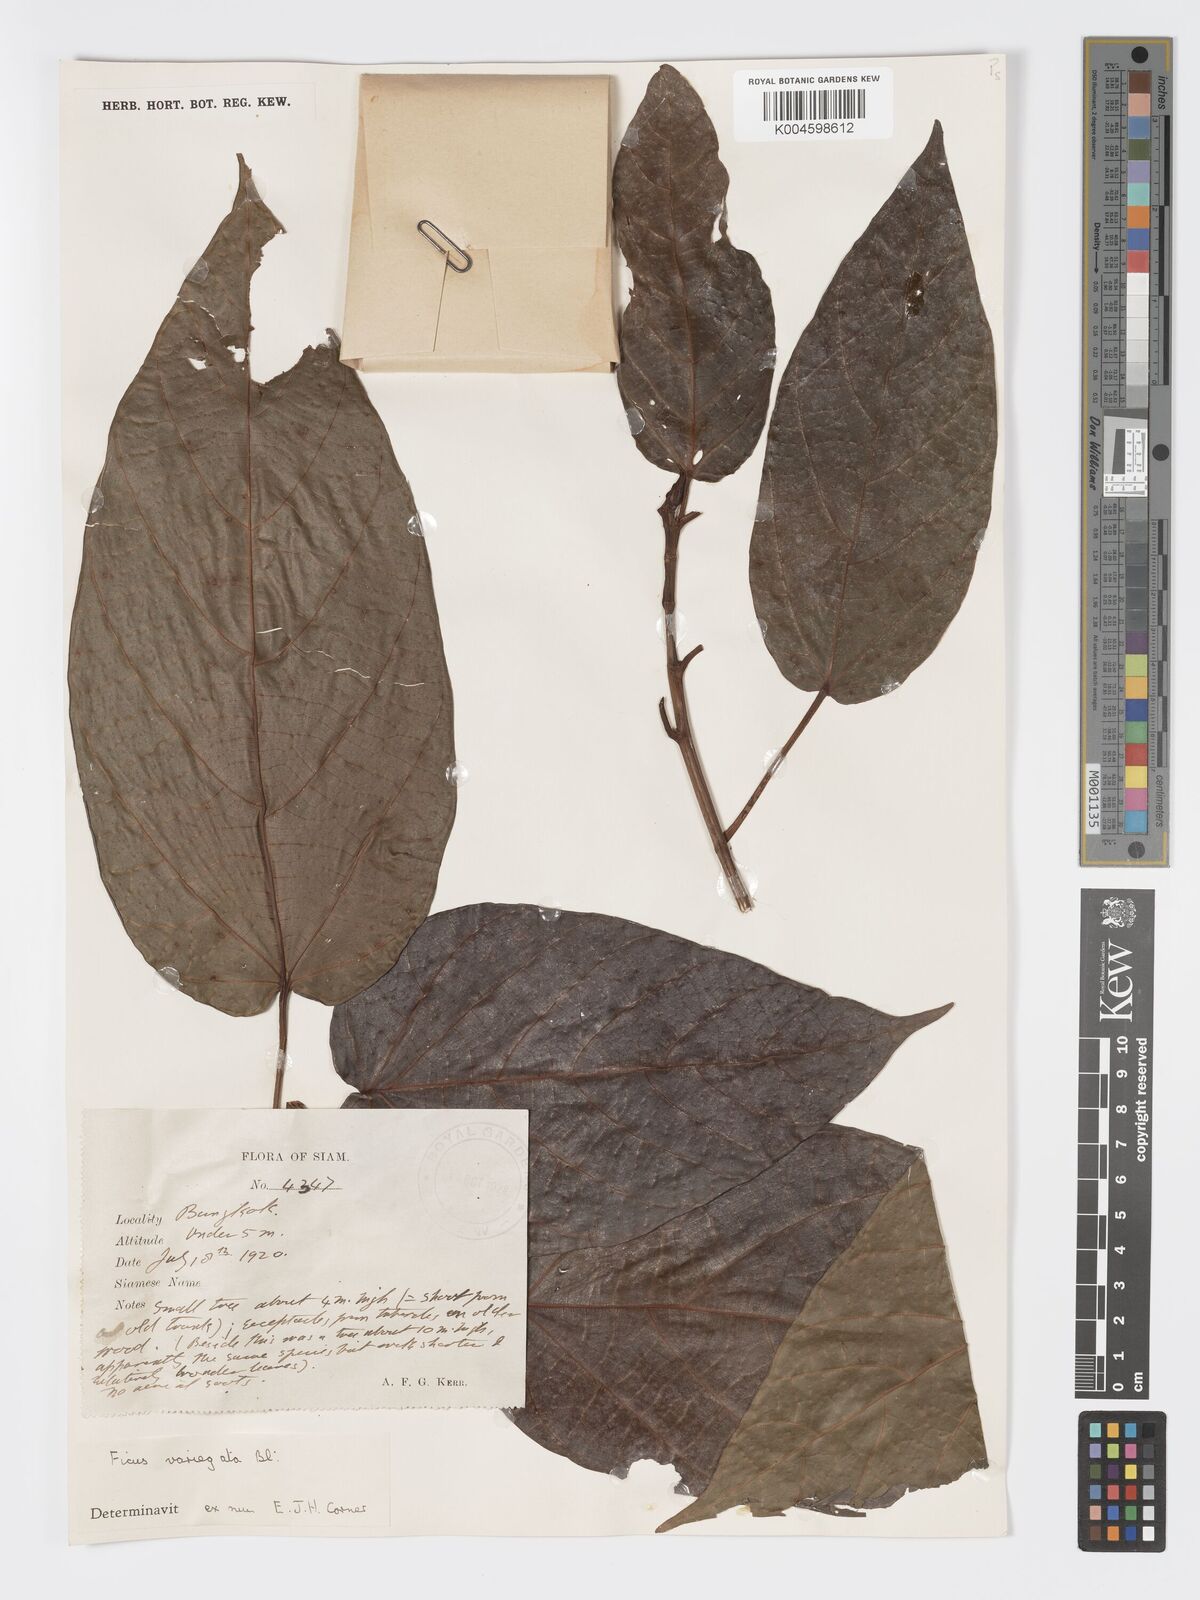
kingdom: Plantae
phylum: Tracheophyta
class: Magnoliopsida
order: Rosales
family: Moraceae
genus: Ficus
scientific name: Ficus variegata
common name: Variegated fig
